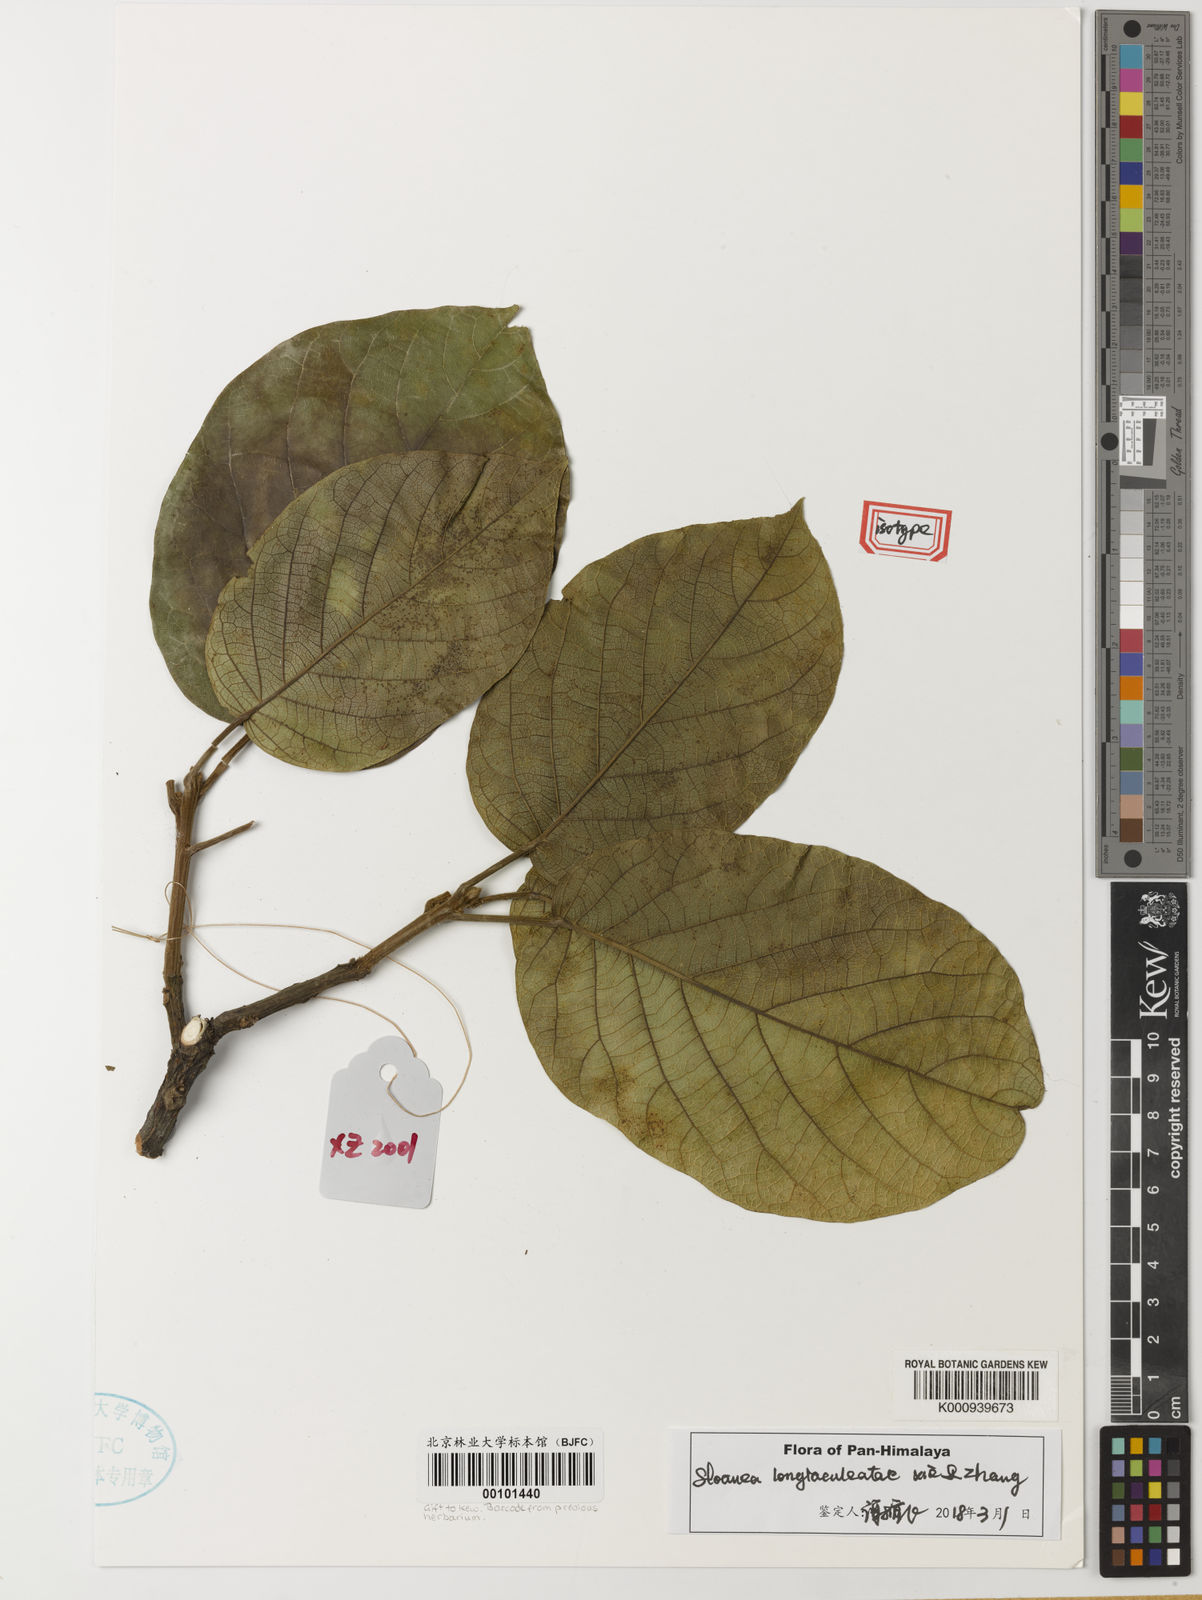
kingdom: Plantae
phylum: Tracheophyta
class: Magnoliopsida
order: Oxalidales
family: Elaeocarpaceae
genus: Sloanea
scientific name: Sloanea longiaculeatae
